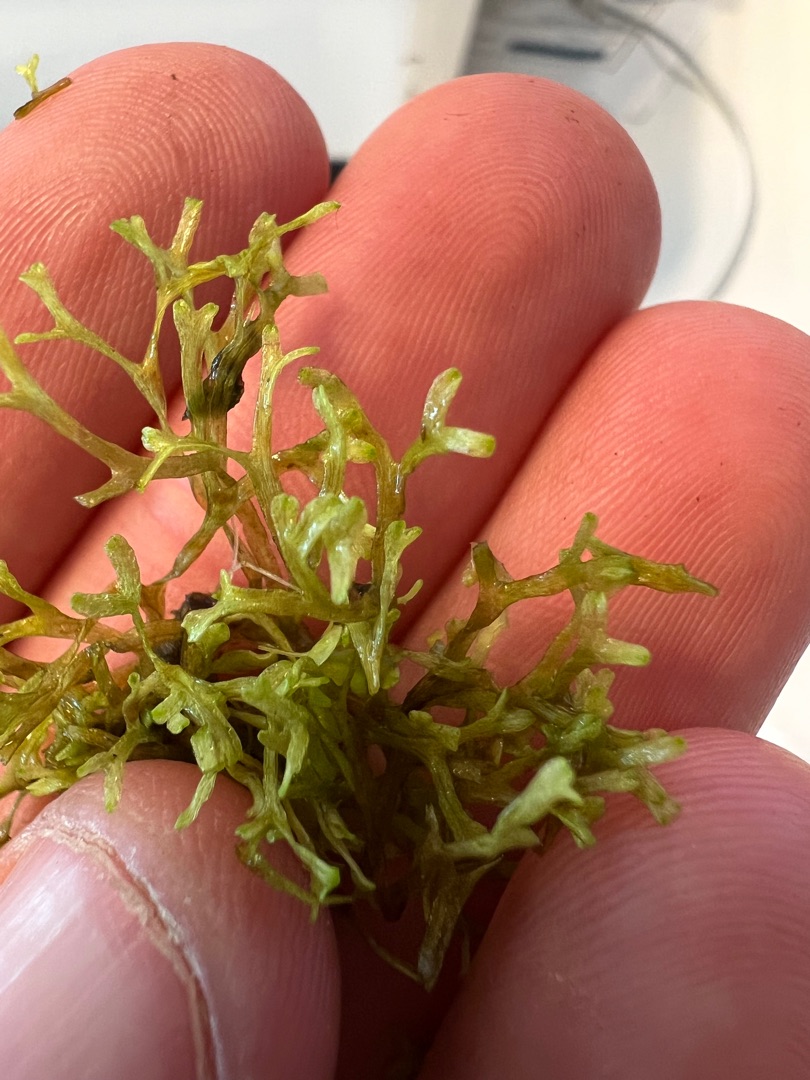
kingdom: Plantae
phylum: Marchantiophyta
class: Marchantiopsida
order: Marchantiales
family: Ricciaceae
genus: Riccia
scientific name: Riccia fluitans
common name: Svømmende stjerneløv
